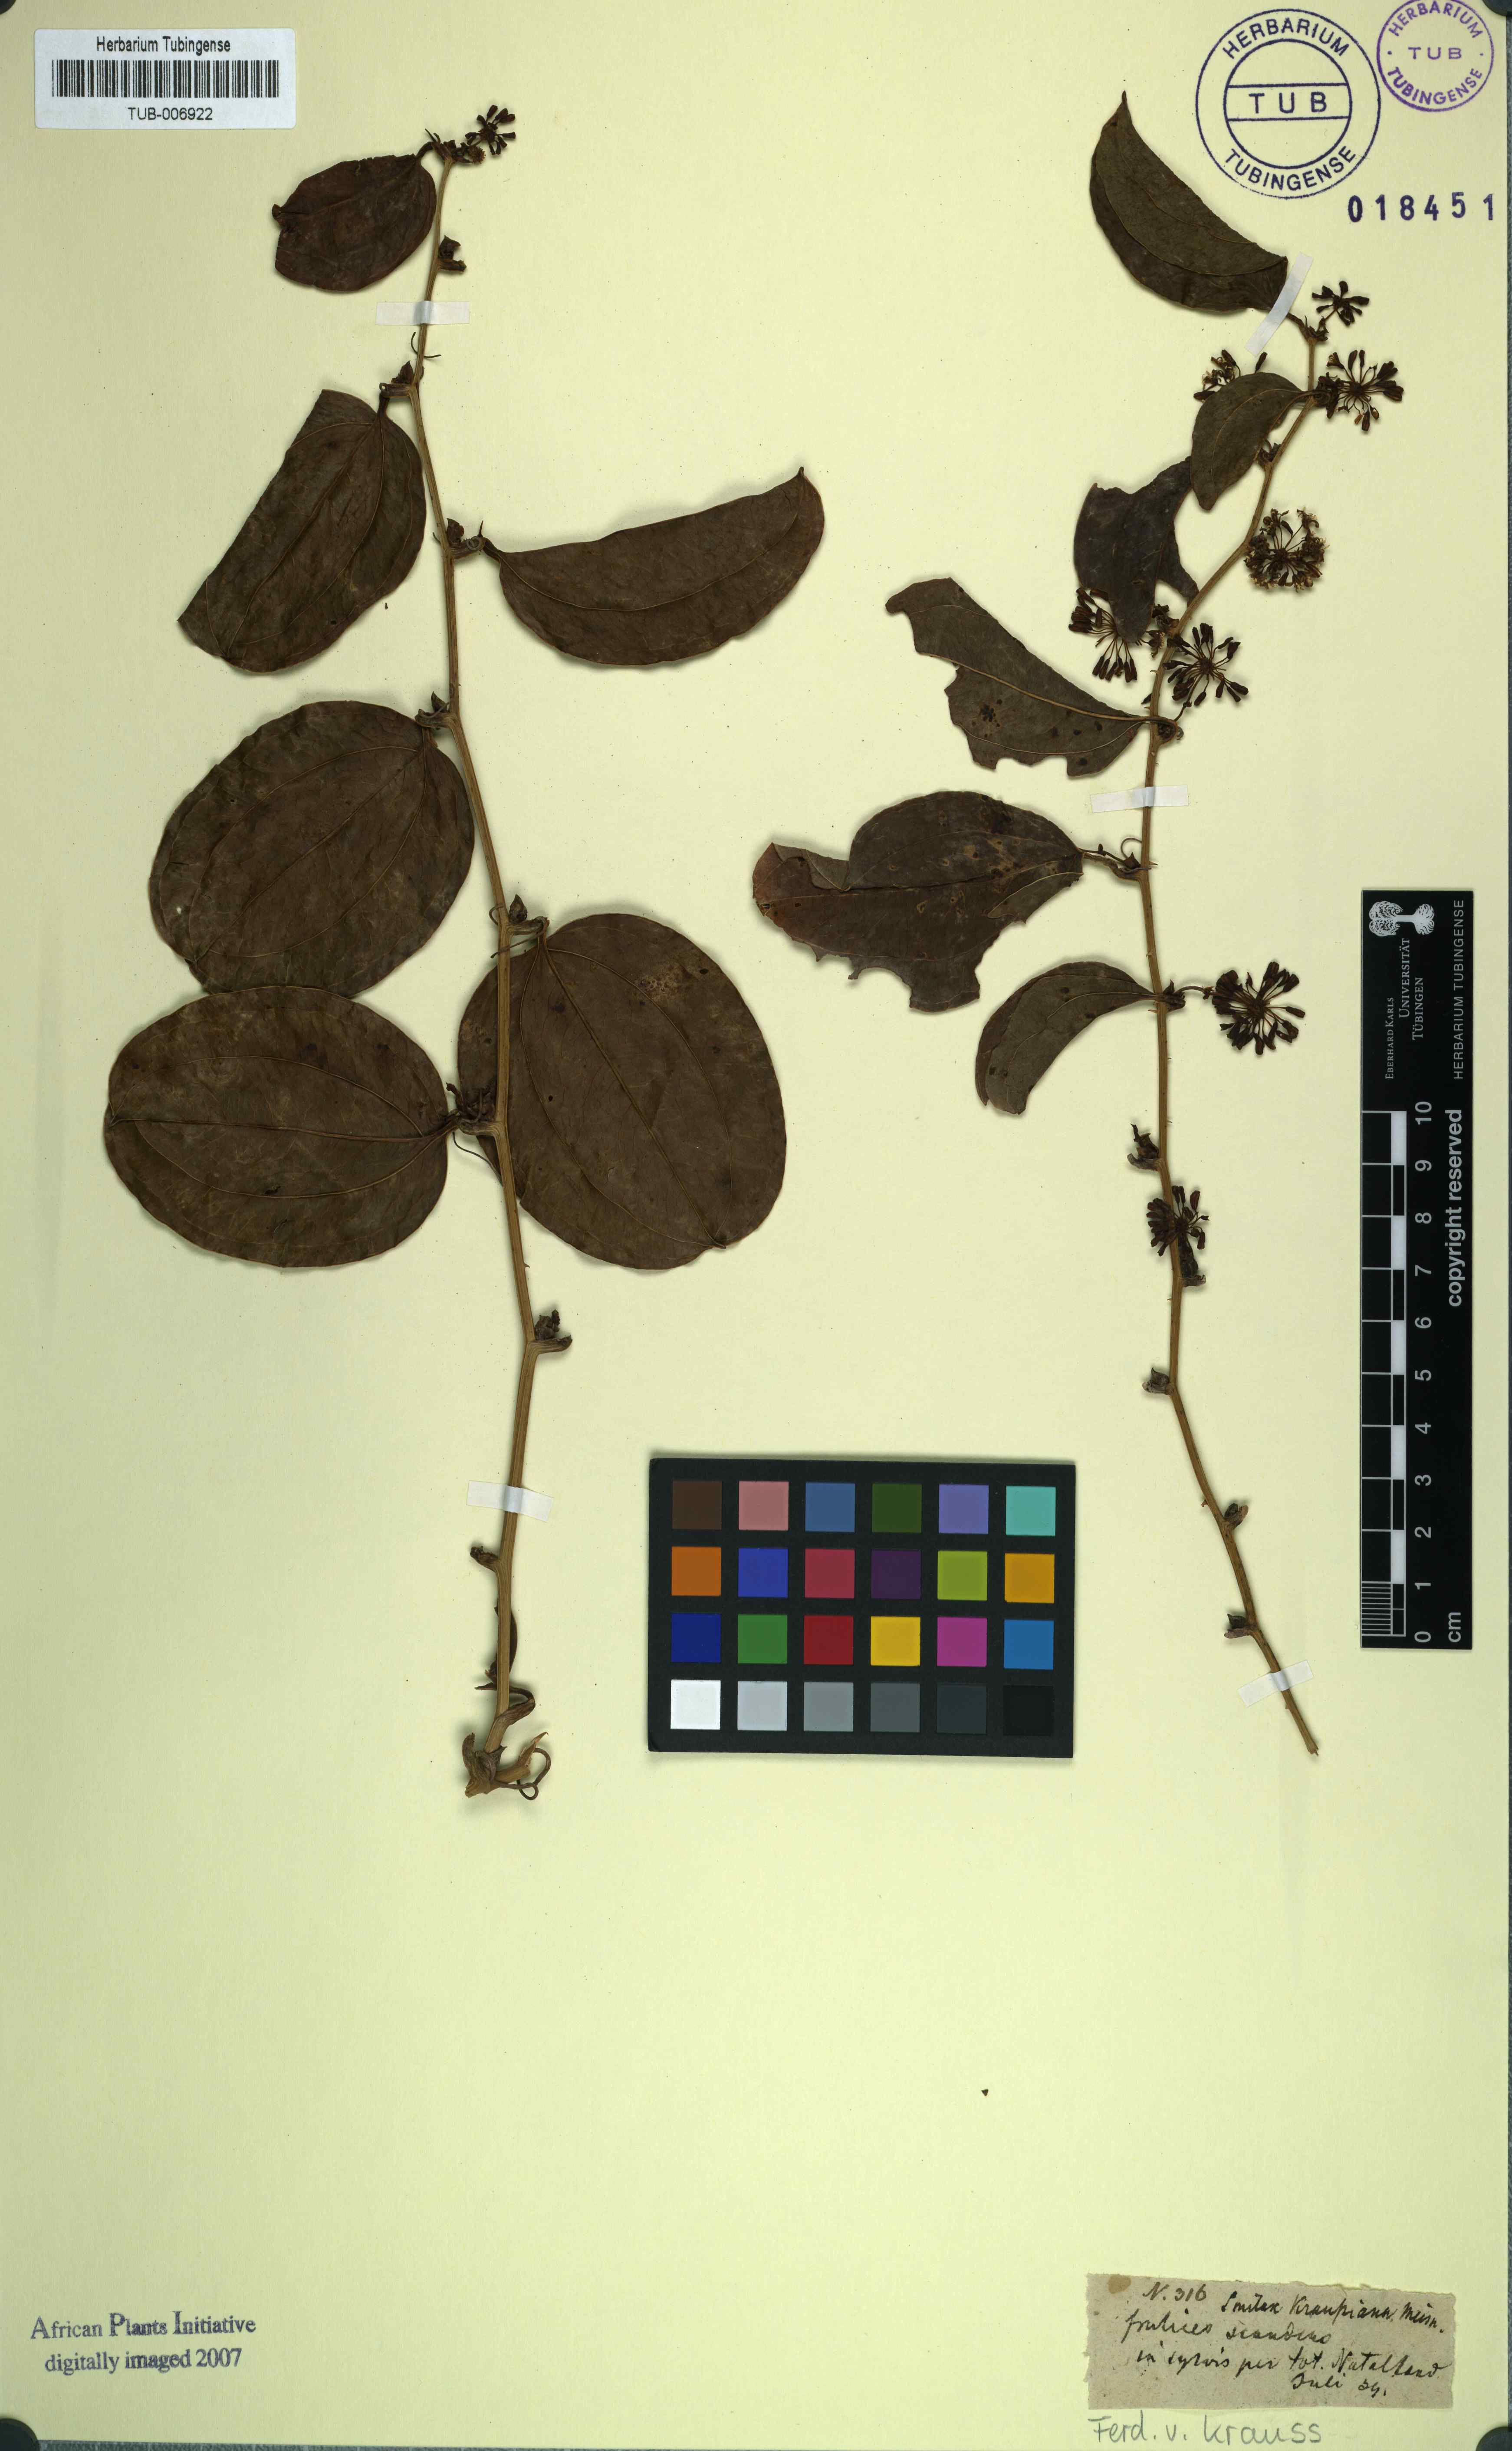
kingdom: Plantae
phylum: Tracheophyta
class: Liliopsida
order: Liliales
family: Smilacaceae
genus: Smilax
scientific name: Smilax anceps
